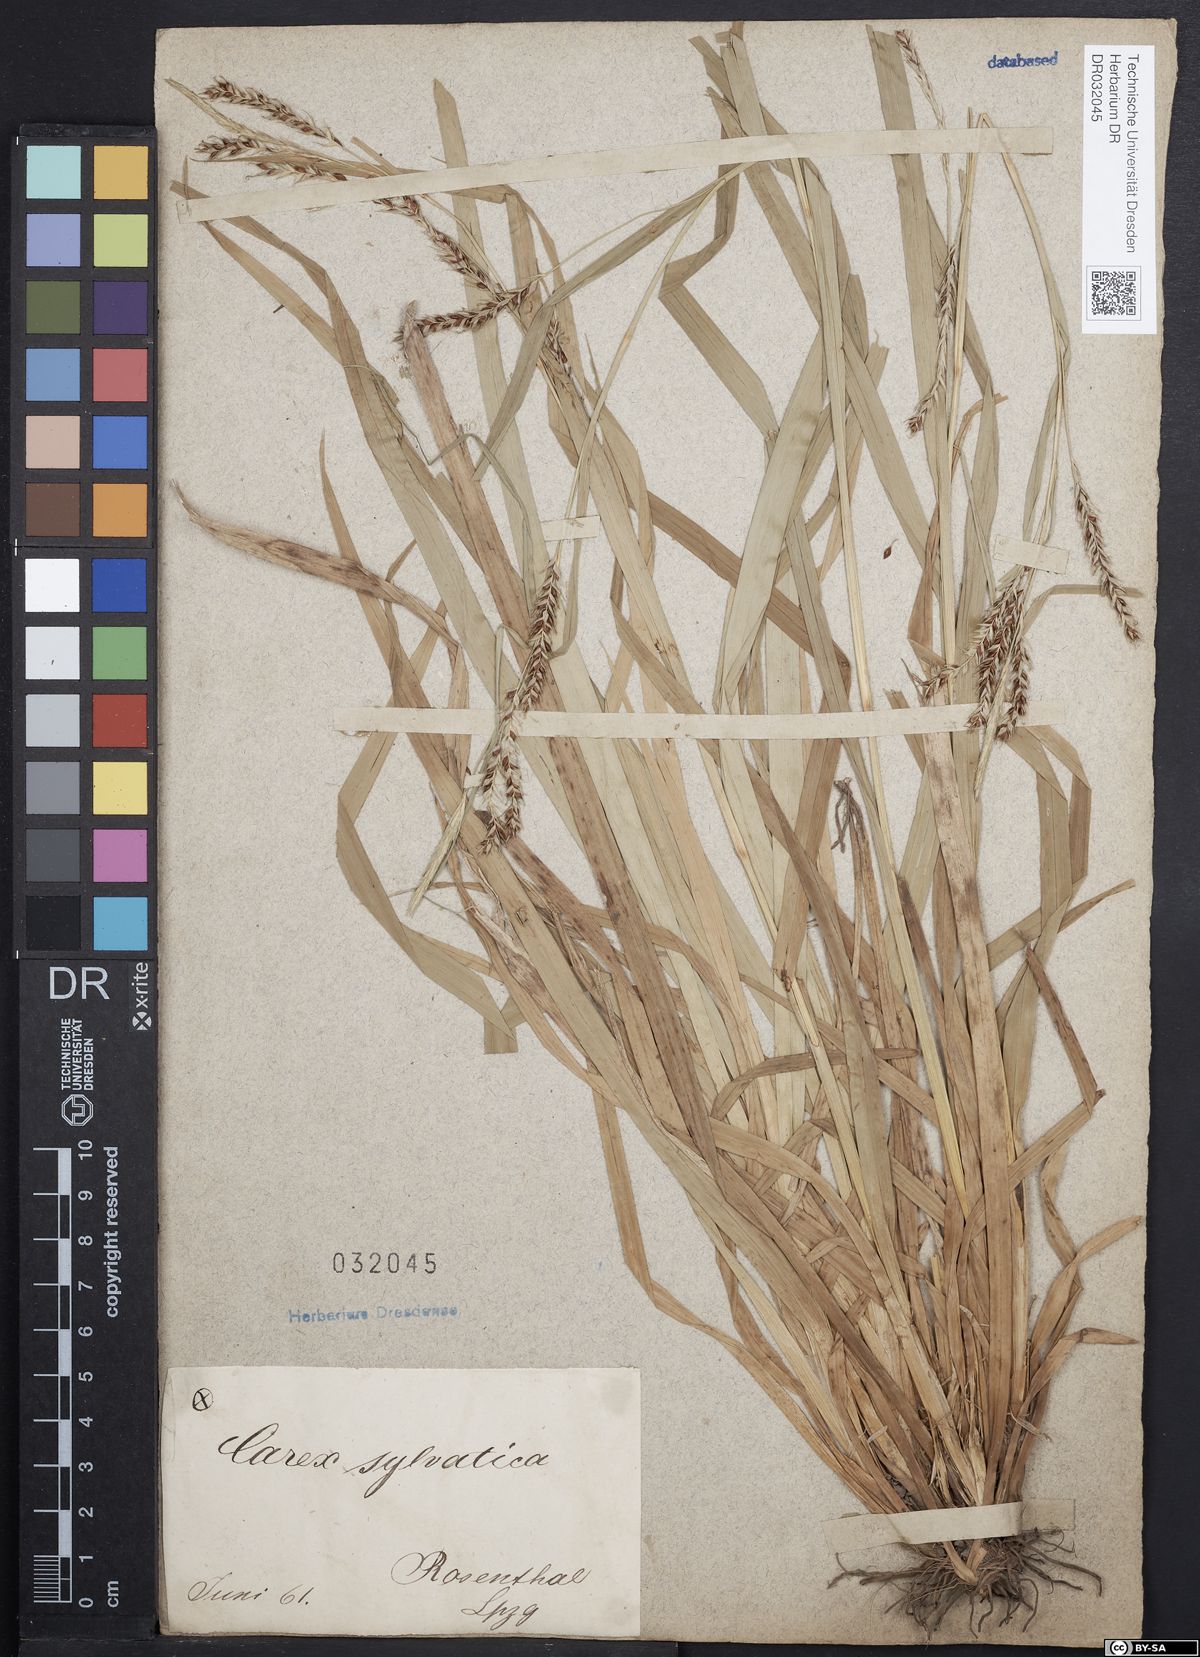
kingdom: Plantae
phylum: Tracheophyta
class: Liliopsida
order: Poales
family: Cyperaceae
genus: Carex
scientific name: Carex sylvatica
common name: Wood-sedge
